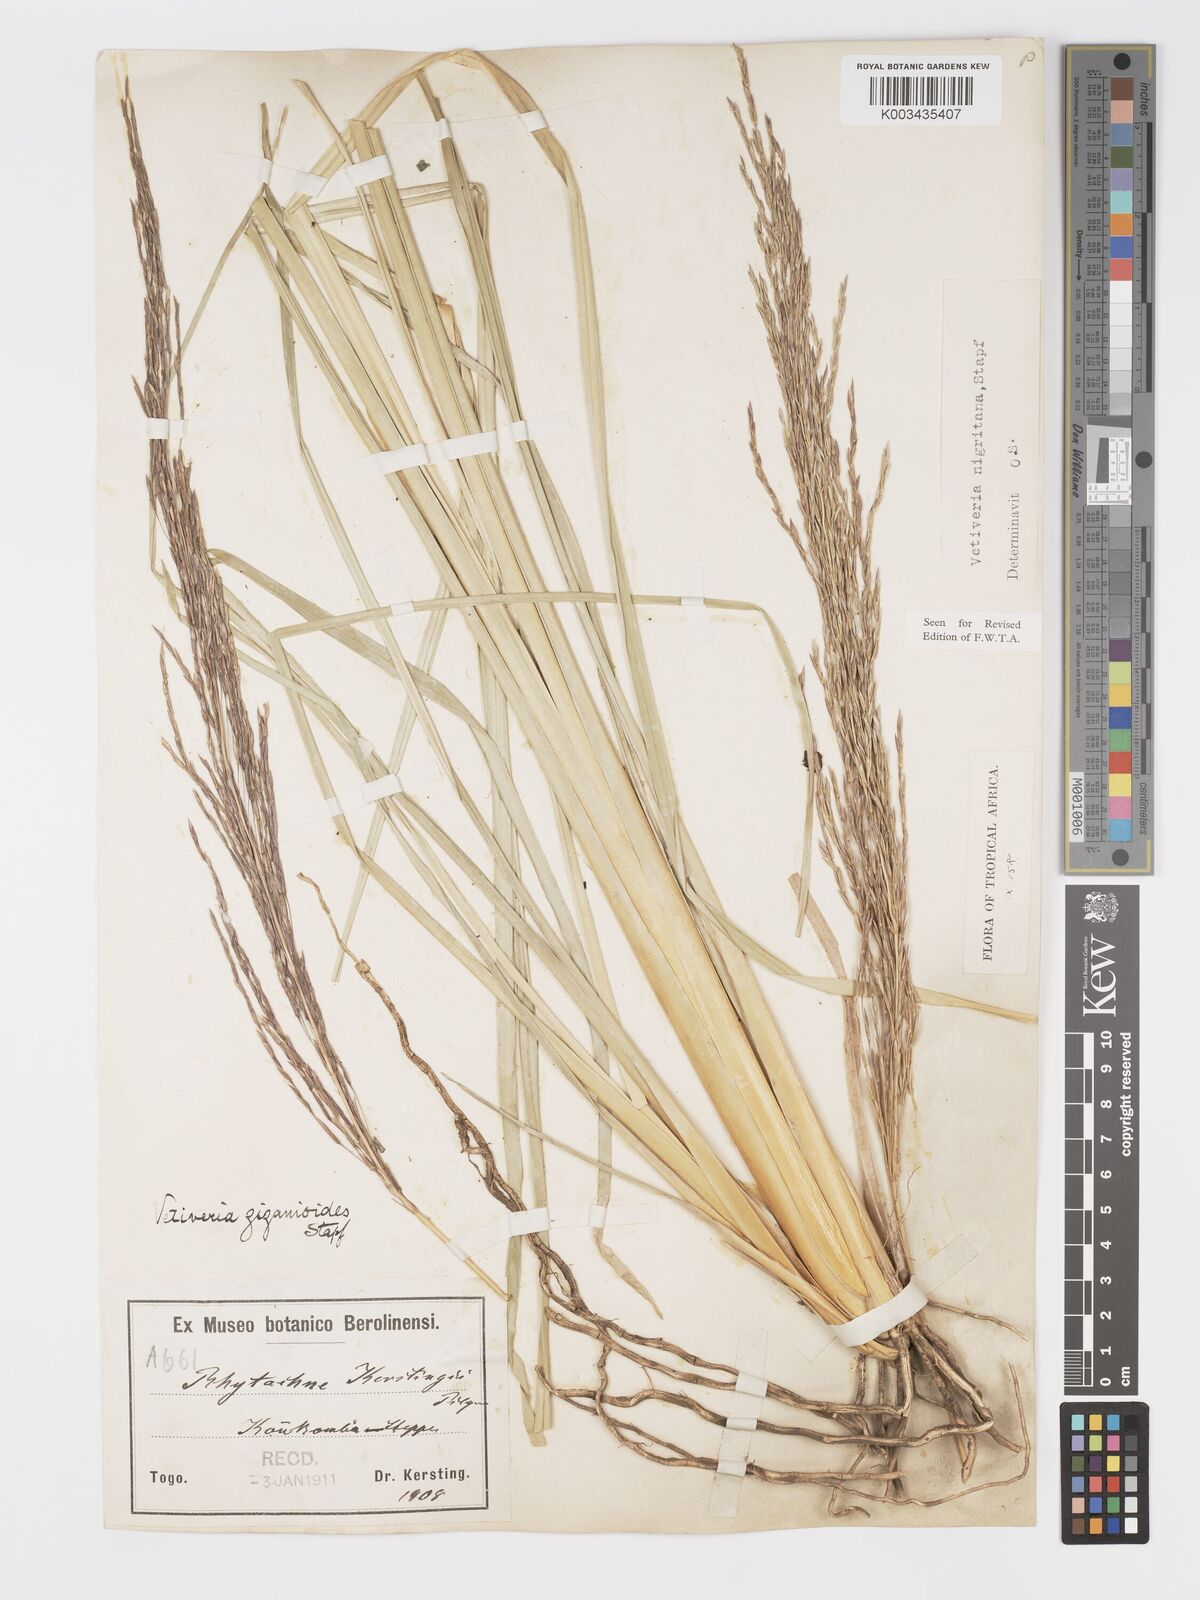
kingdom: Plantae
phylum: Tracheophyta
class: Liliopsida
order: Poales
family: Poaceae
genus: Chrysopogon
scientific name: Chrysopogon nigritanus
